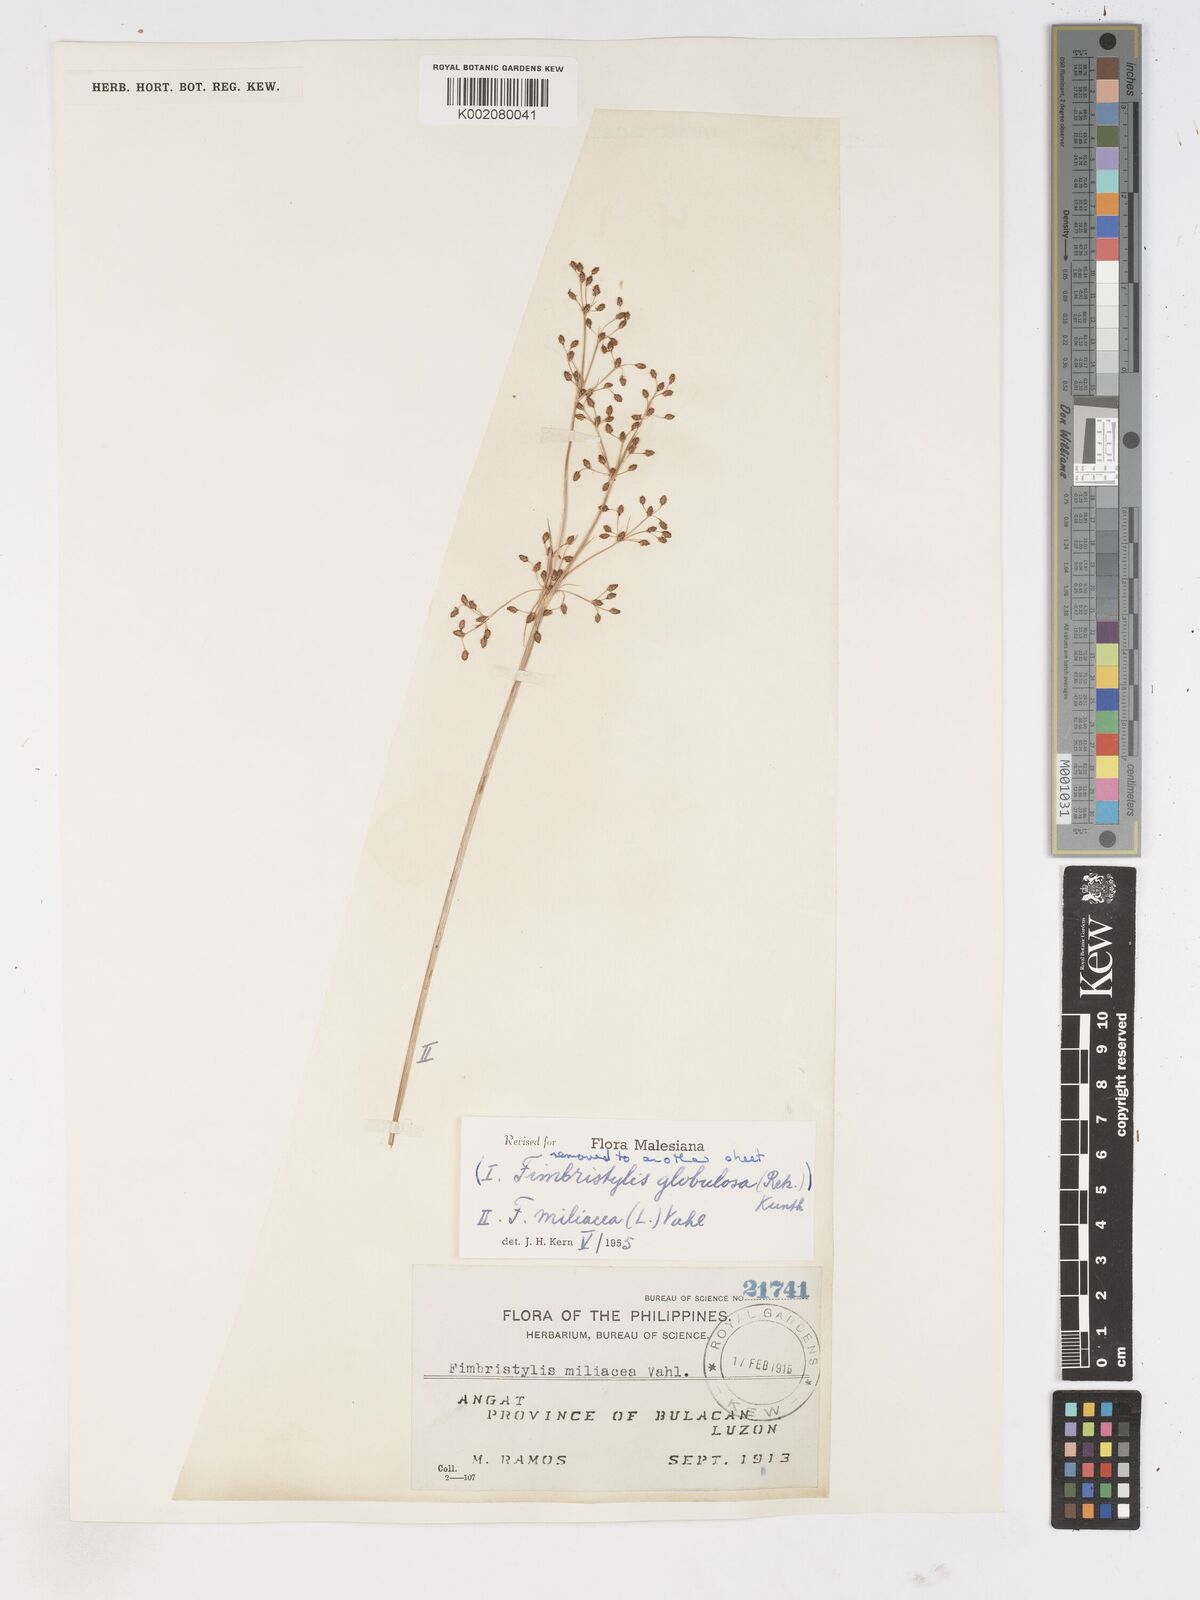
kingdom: Plantae
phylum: Tracheophyta
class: Liliopsida
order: Poales
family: Cyperaceae
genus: Fimbristylis
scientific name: Fimbristylis littoralis
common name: Fimbry
